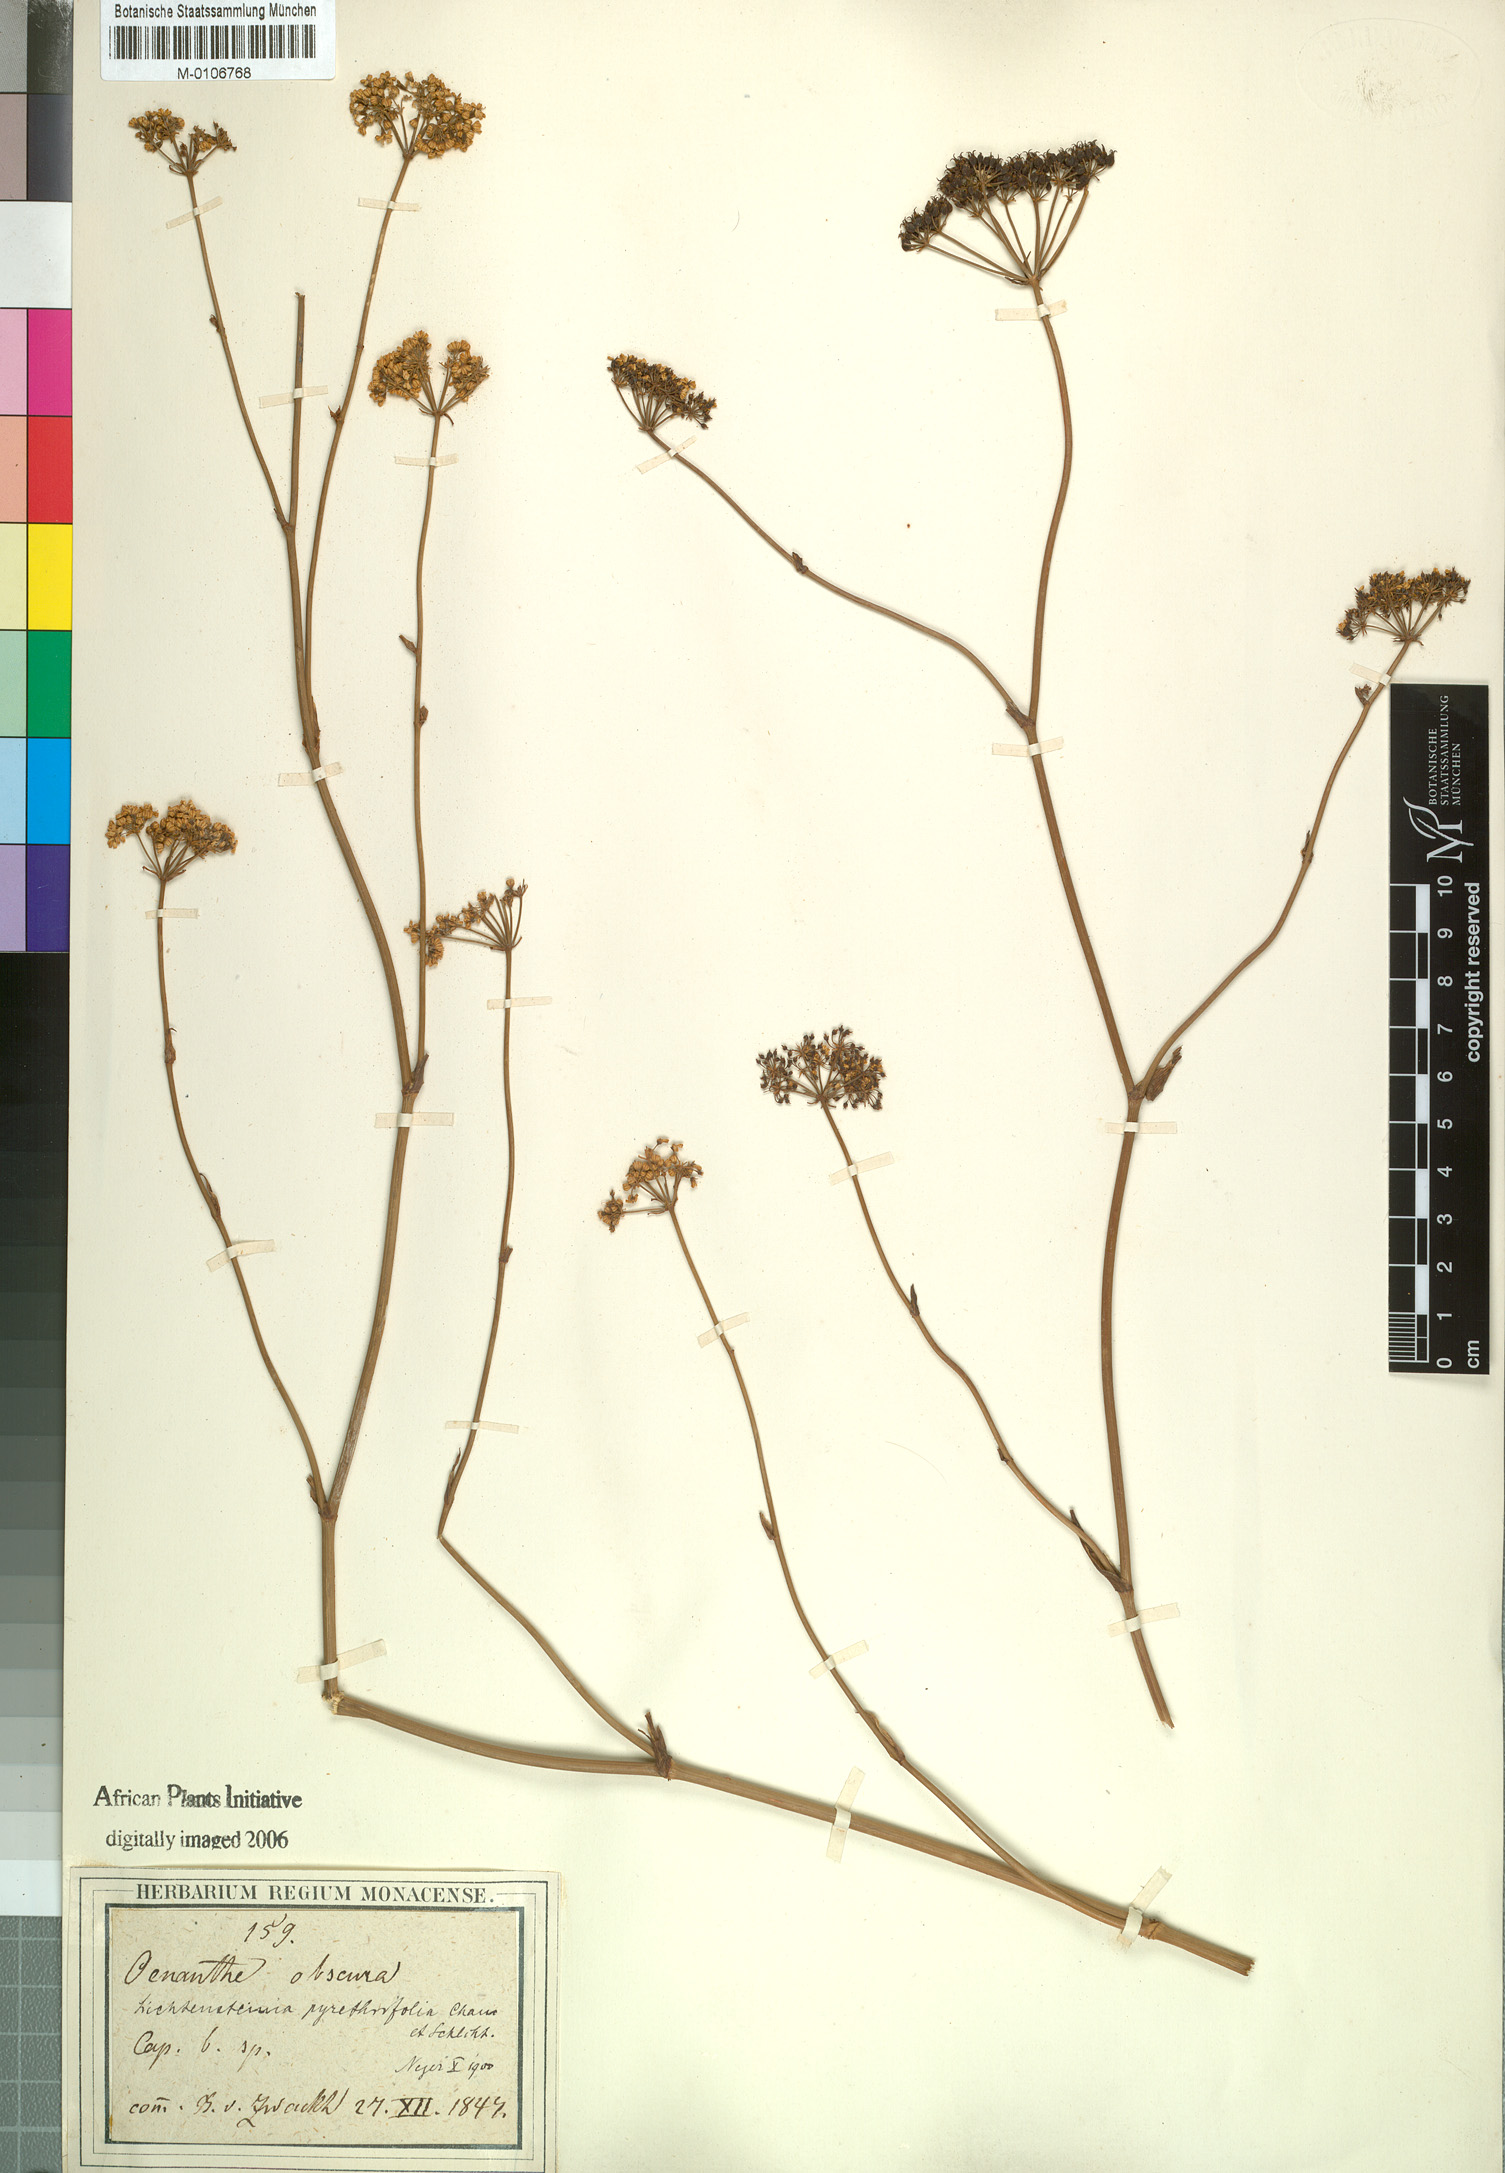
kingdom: Plantae
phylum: Tracheophyta
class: Magnoliopsida
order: Apiales
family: Apiaceae
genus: Lichtensteinia
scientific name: Lichtensteinia interrupta
